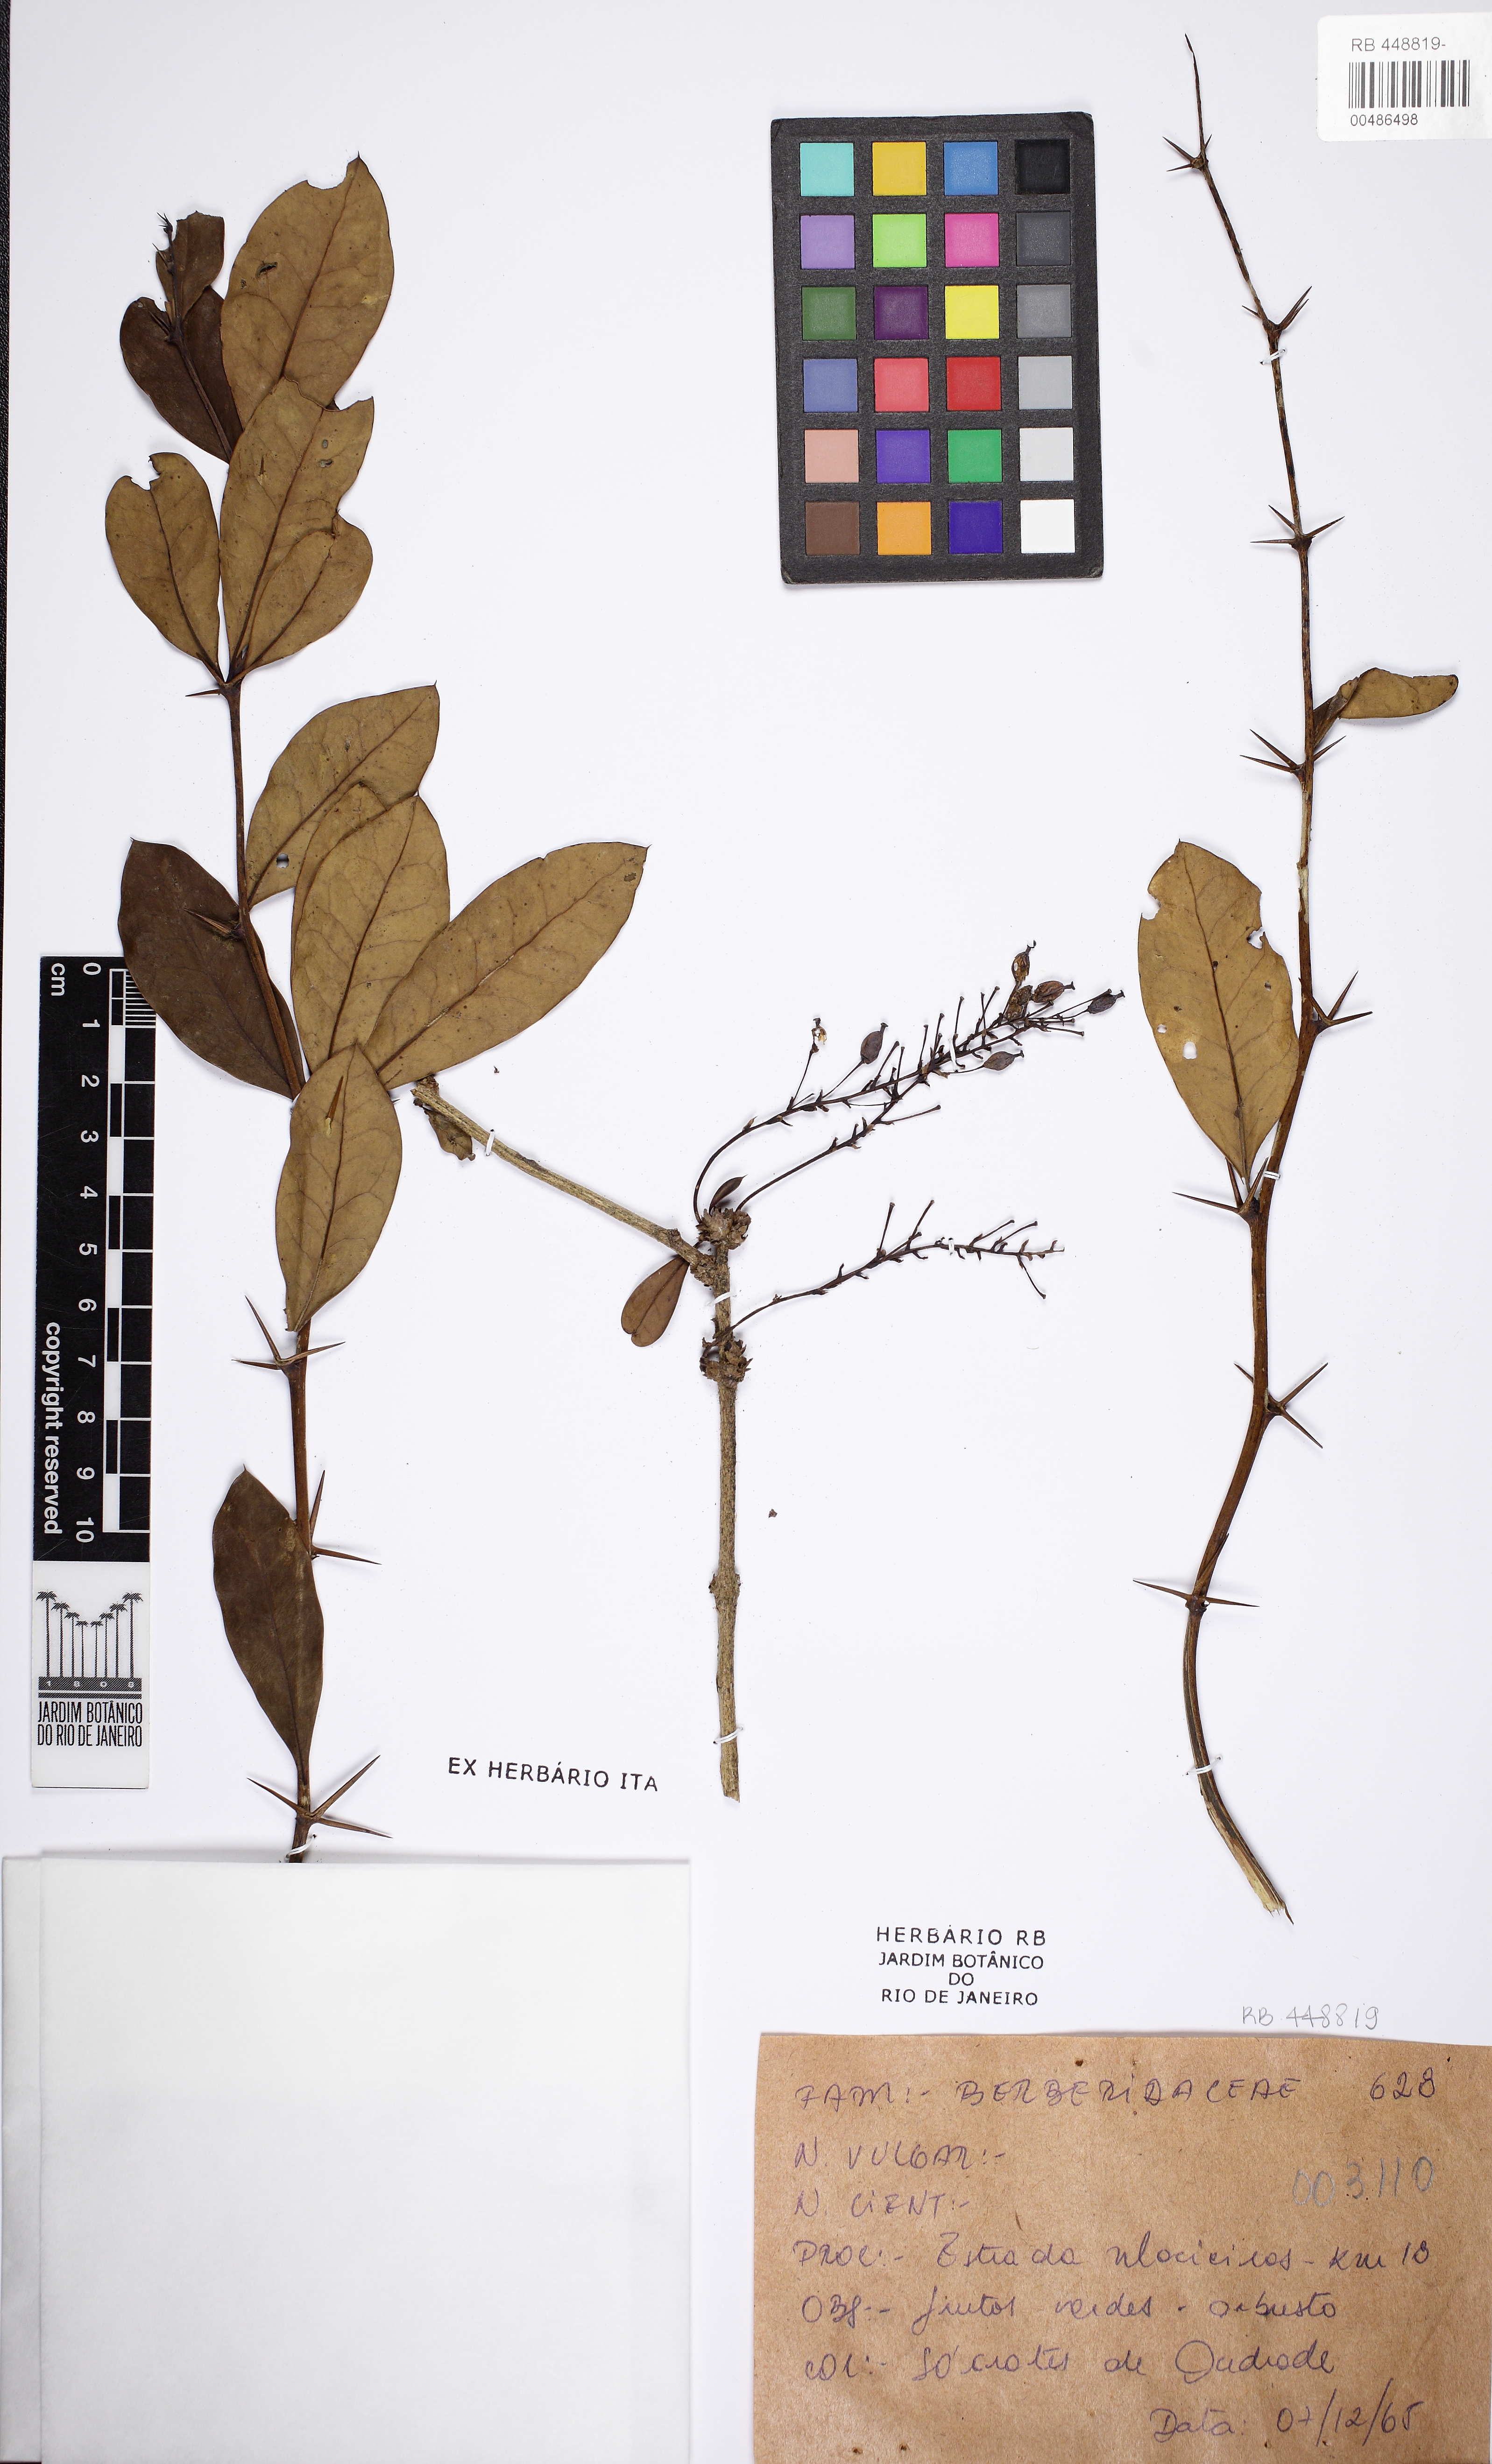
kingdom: Plantae
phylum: Tracheophyta
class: Magnoliopsida
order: Ranunculales
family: Berberidaceae
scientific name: Berberidaceae
